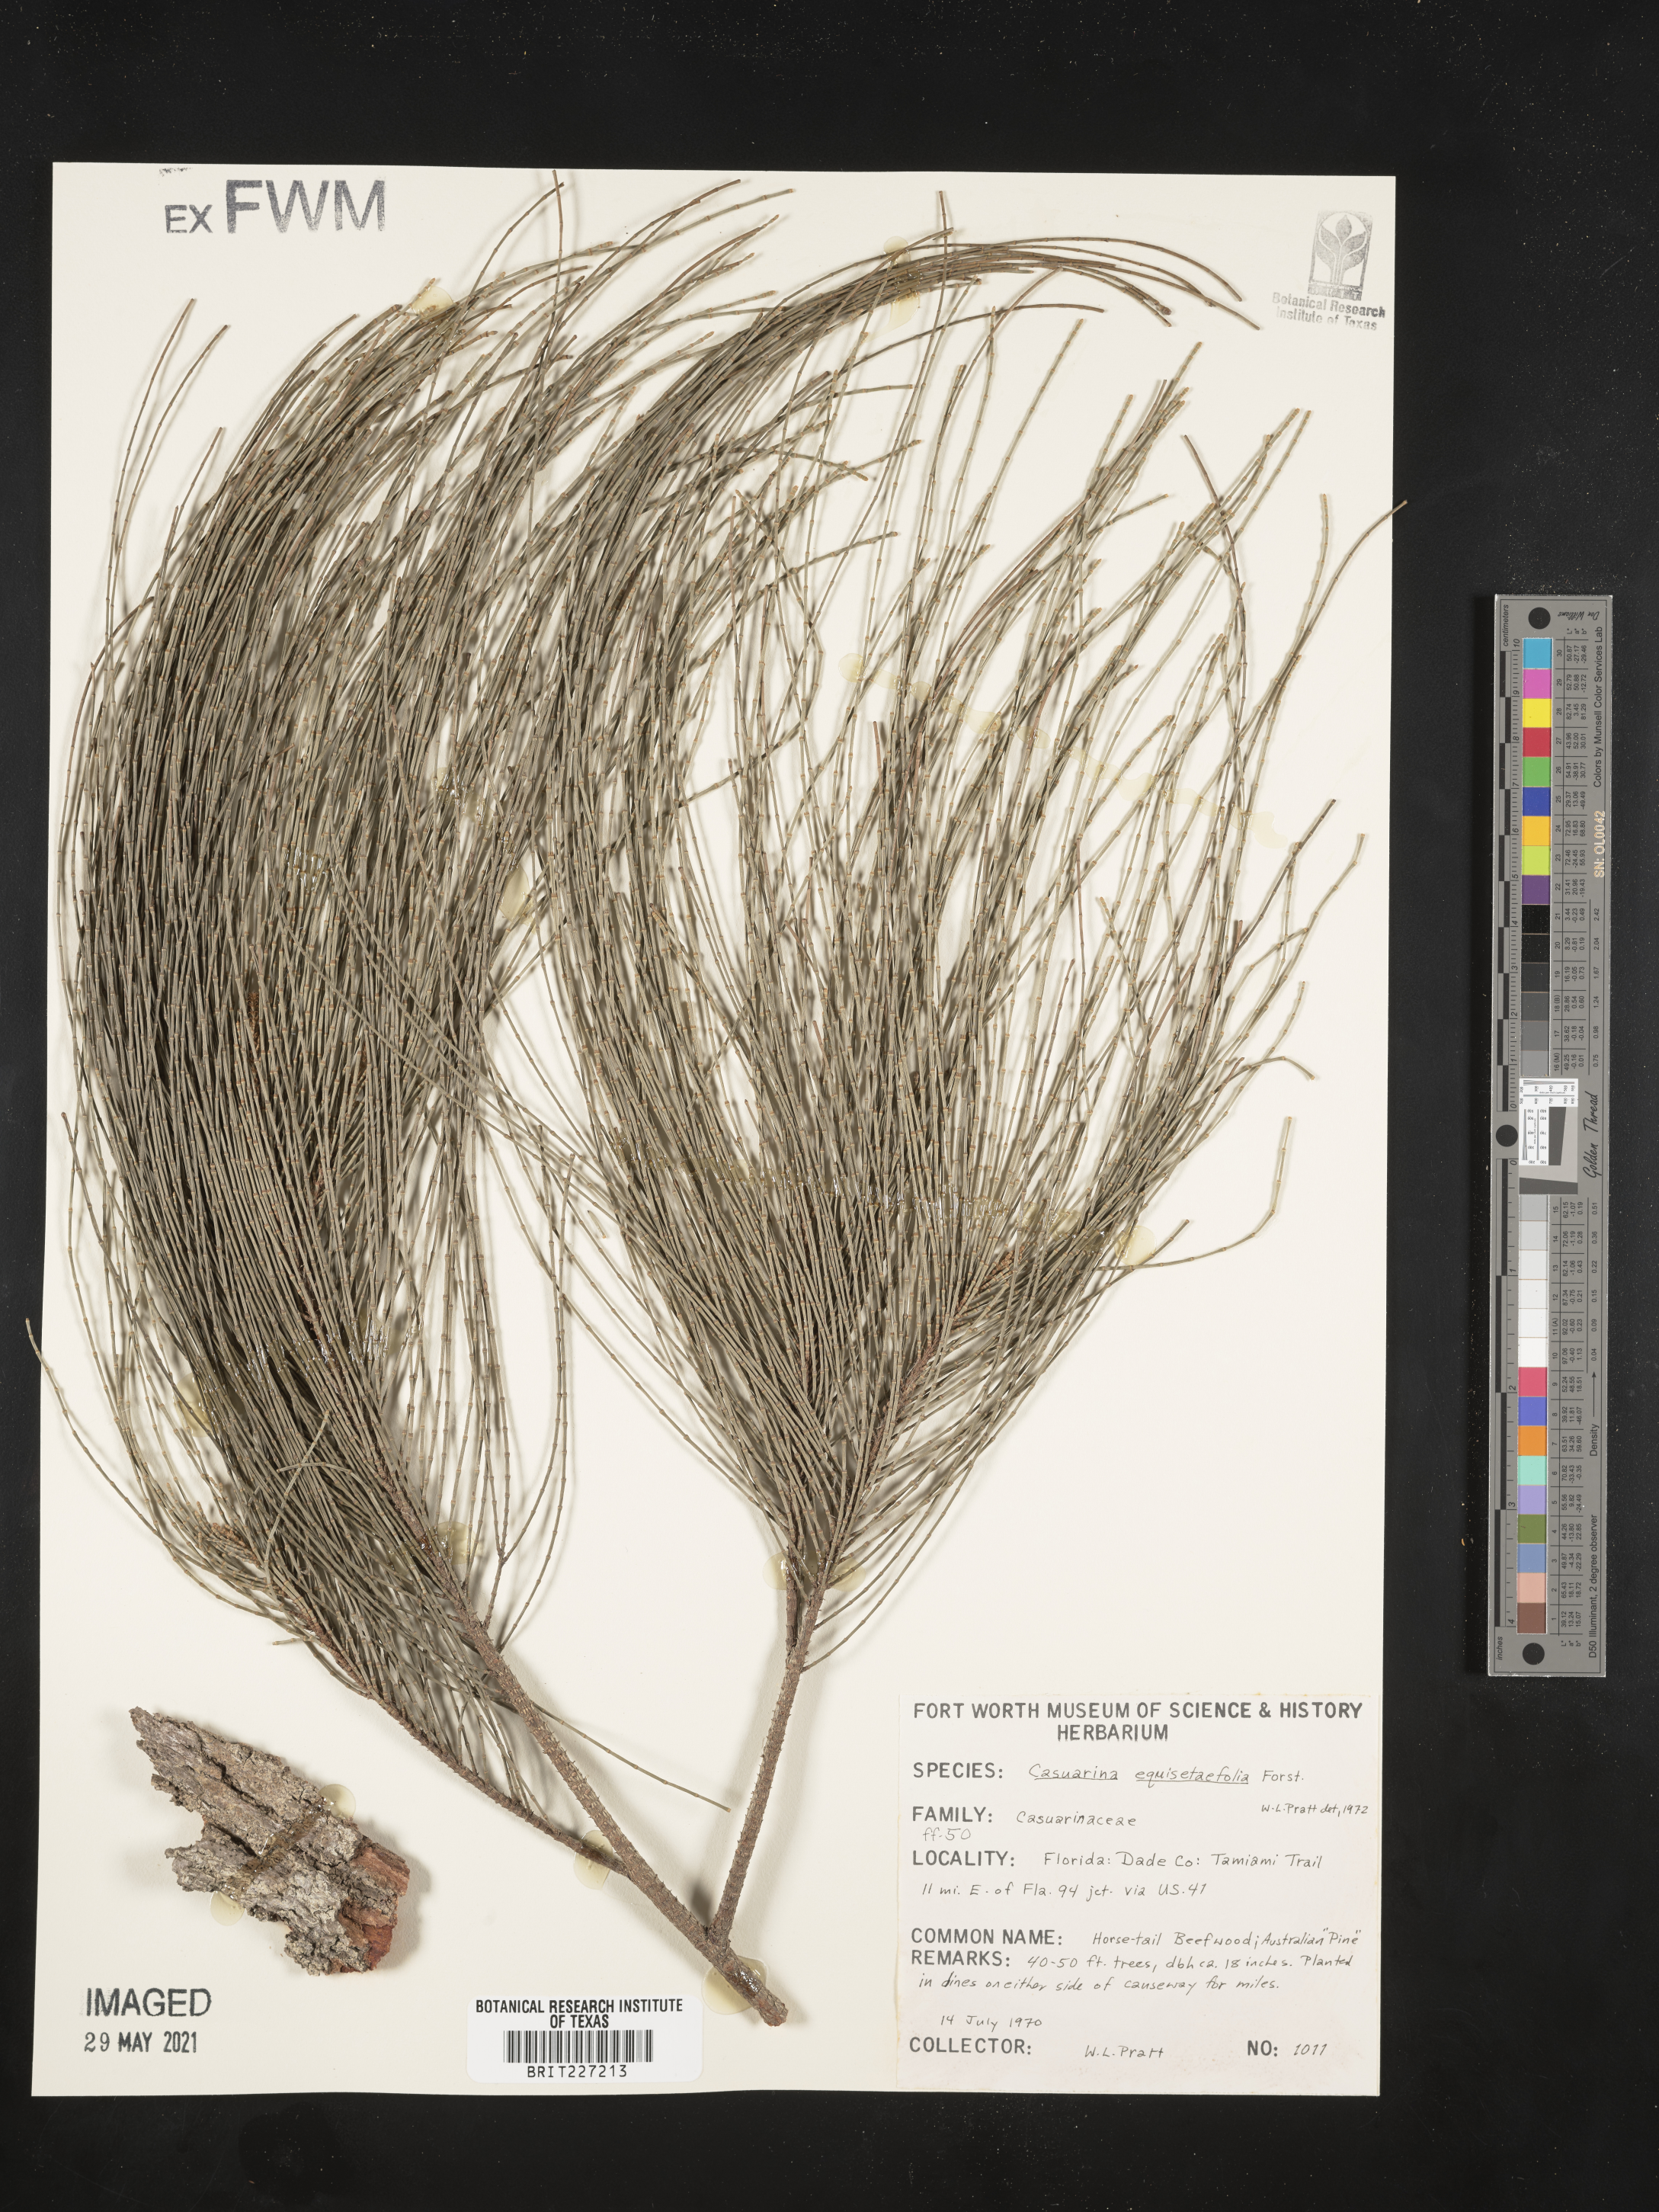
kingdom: Plantae
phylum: Tracheophyta
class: Magnoliopsida
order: Fagales
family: Casuarinaceae
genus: Casuarina
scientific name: Casuarina equisetifolia
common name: Beach sheoak
